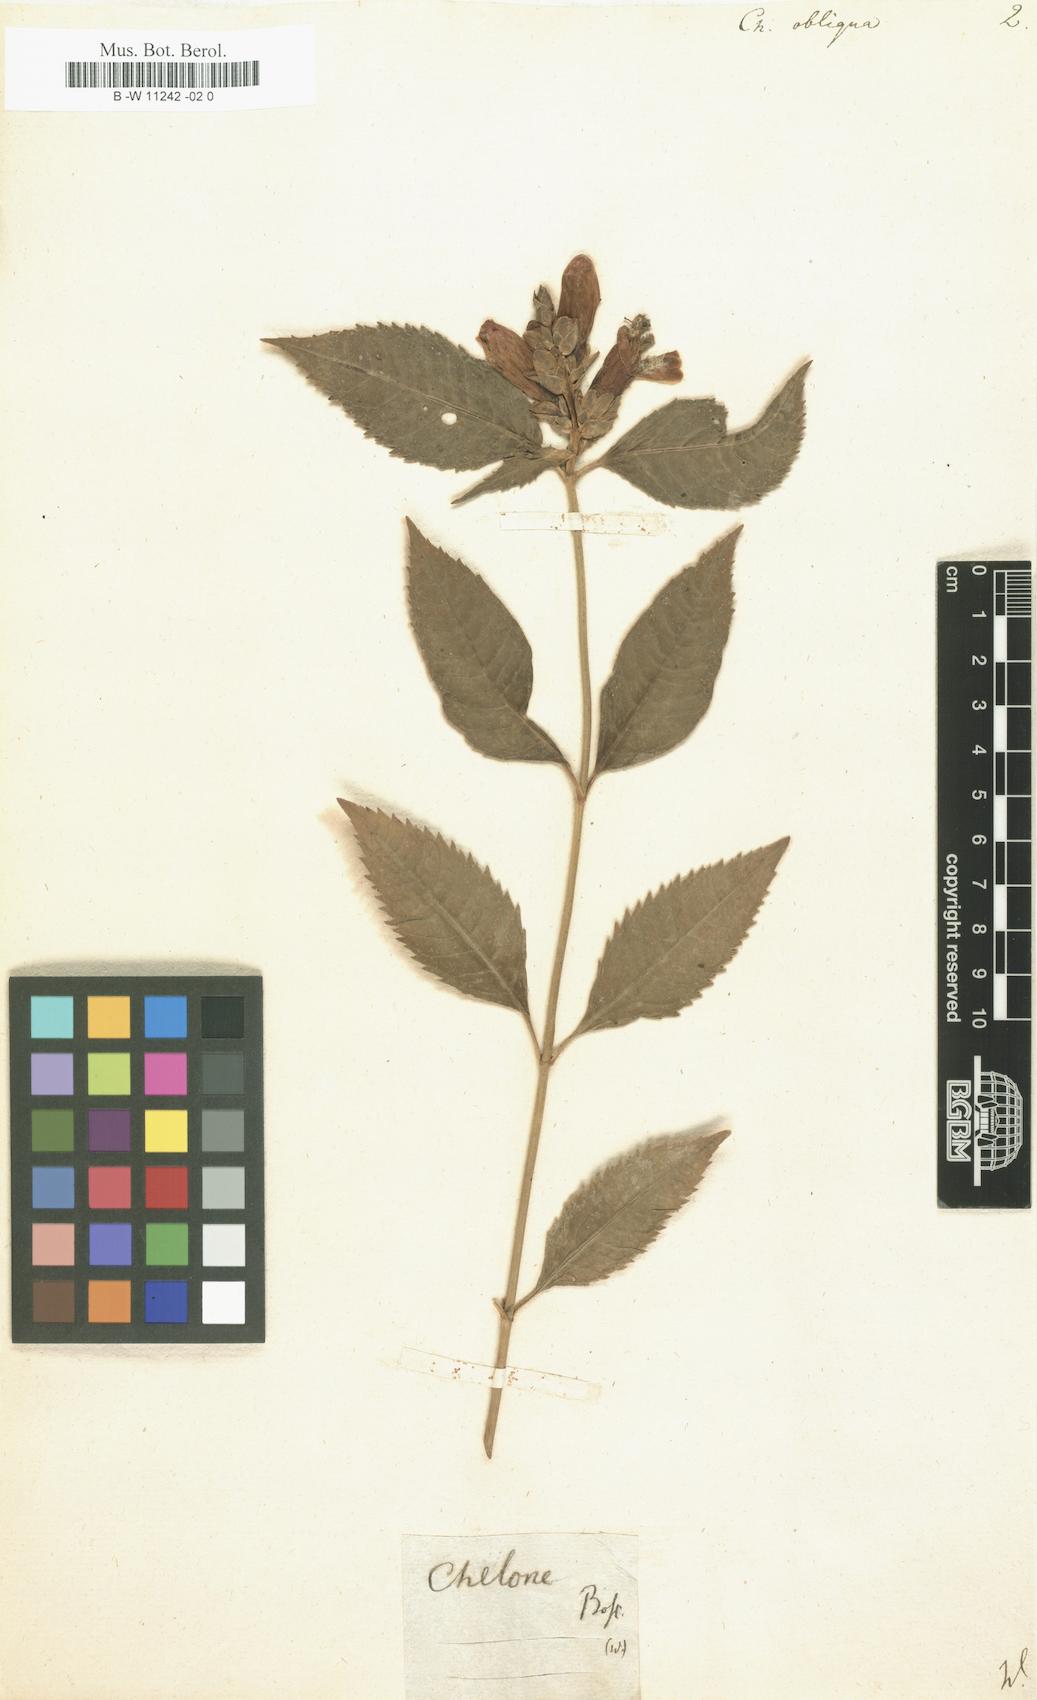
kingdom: Plantae
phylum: Tracheophyta
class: Magnoliopsida
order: Lamiales
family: Plantaginaceae
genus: Chelone
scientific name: Chelone obliqua
